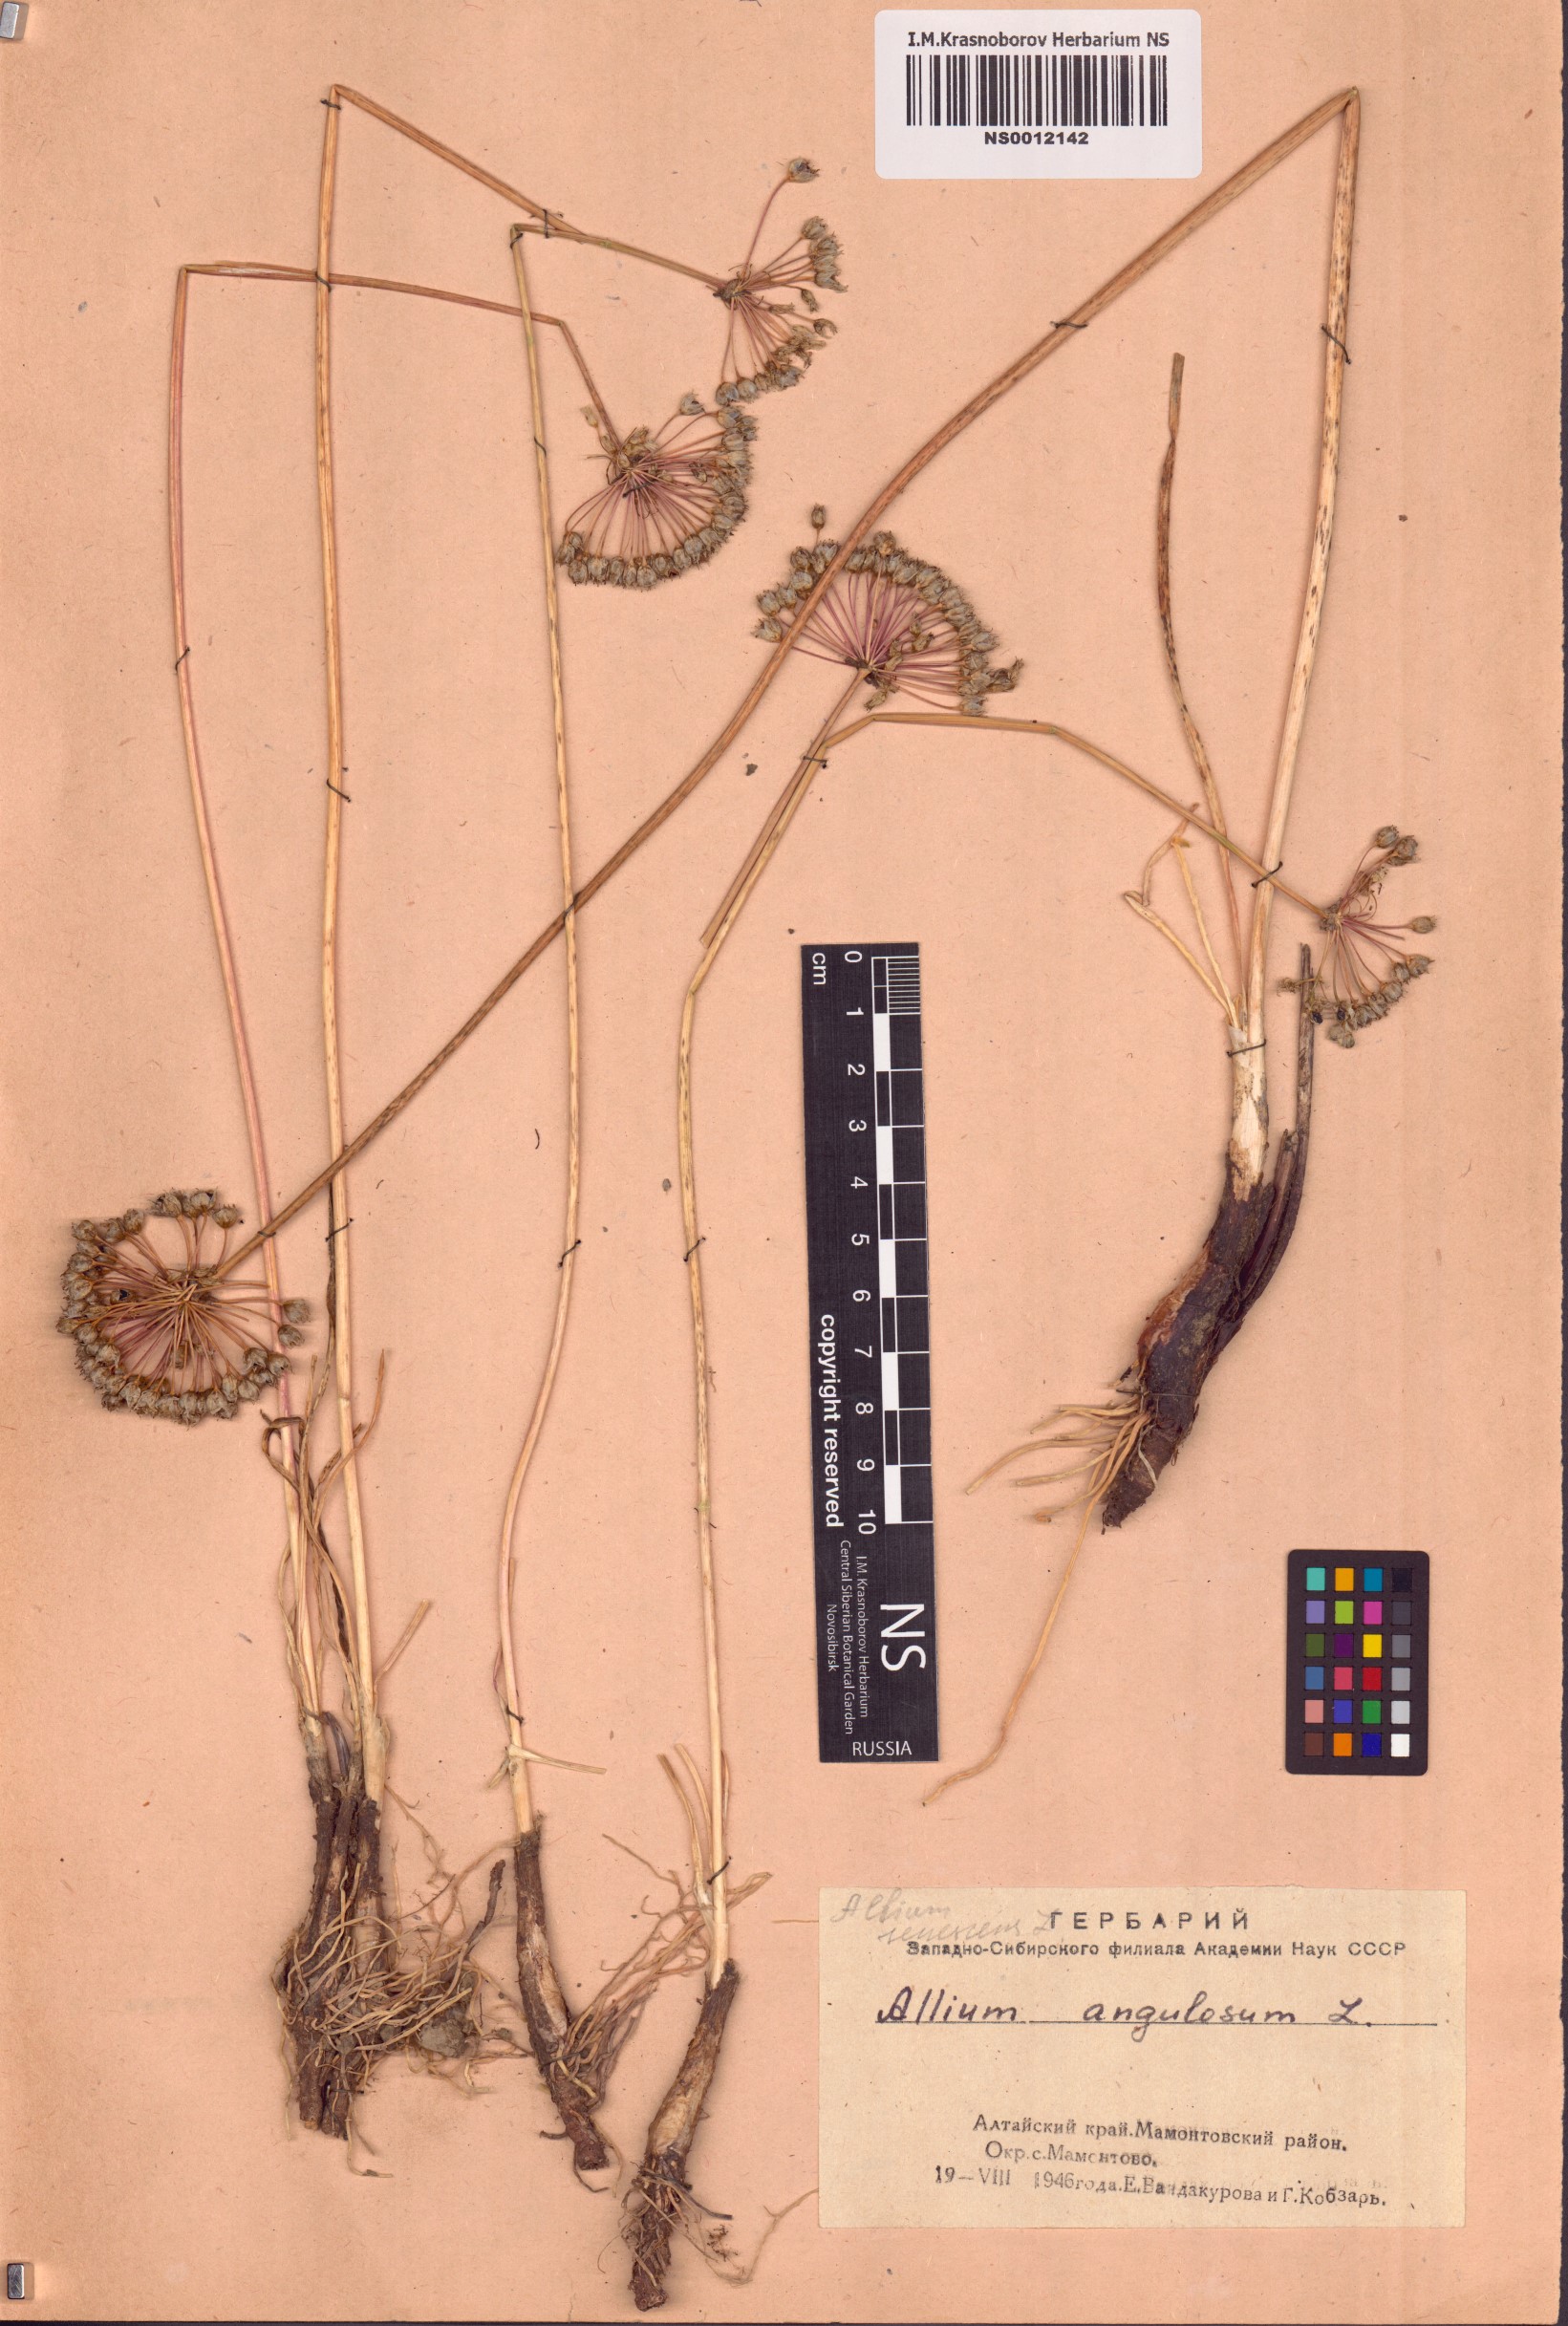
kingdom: Plantae
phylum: Tracheophyta
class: Liliopsida
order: Asparagales
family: Amaryllidaceae
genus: Allium
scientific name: Allium angulosum
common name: Mouse garlic
